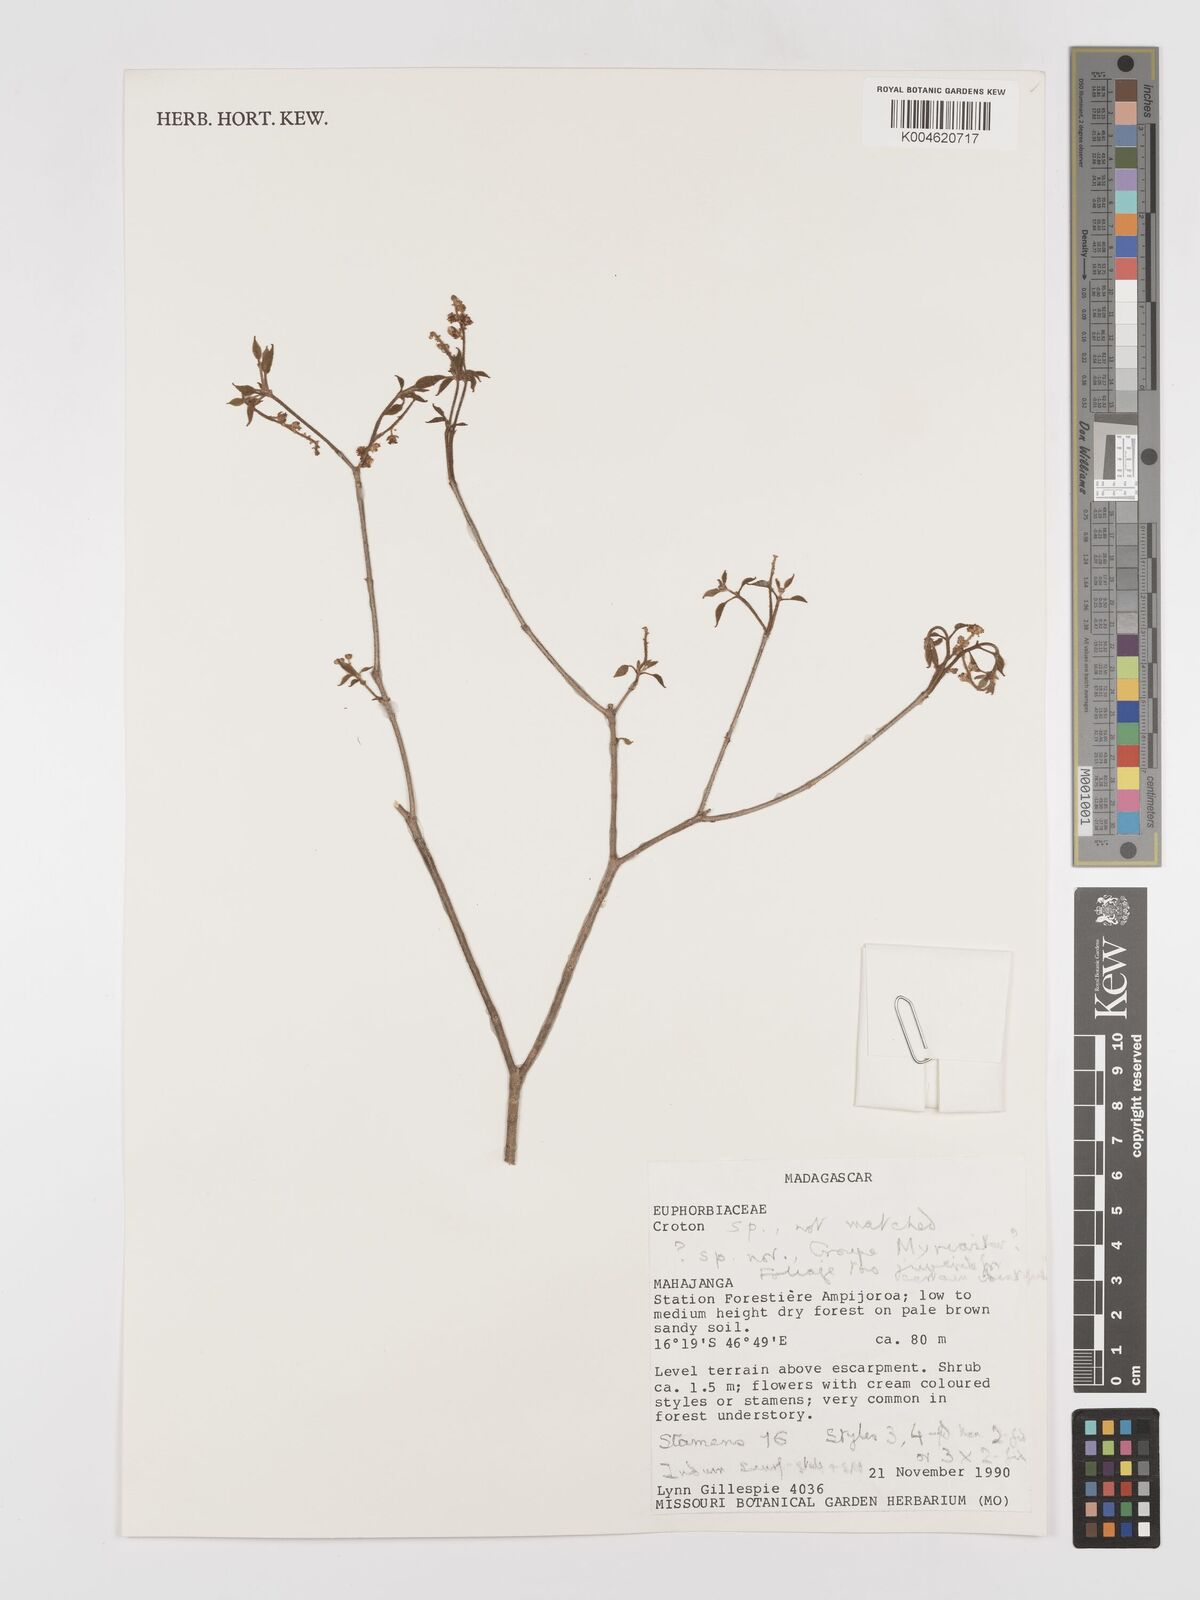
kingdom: Plantae
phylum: Tracheophyta
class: Magnoliopsida
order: Malpighiales
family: Euphorbiaceae
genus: Croton
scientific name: Croton
